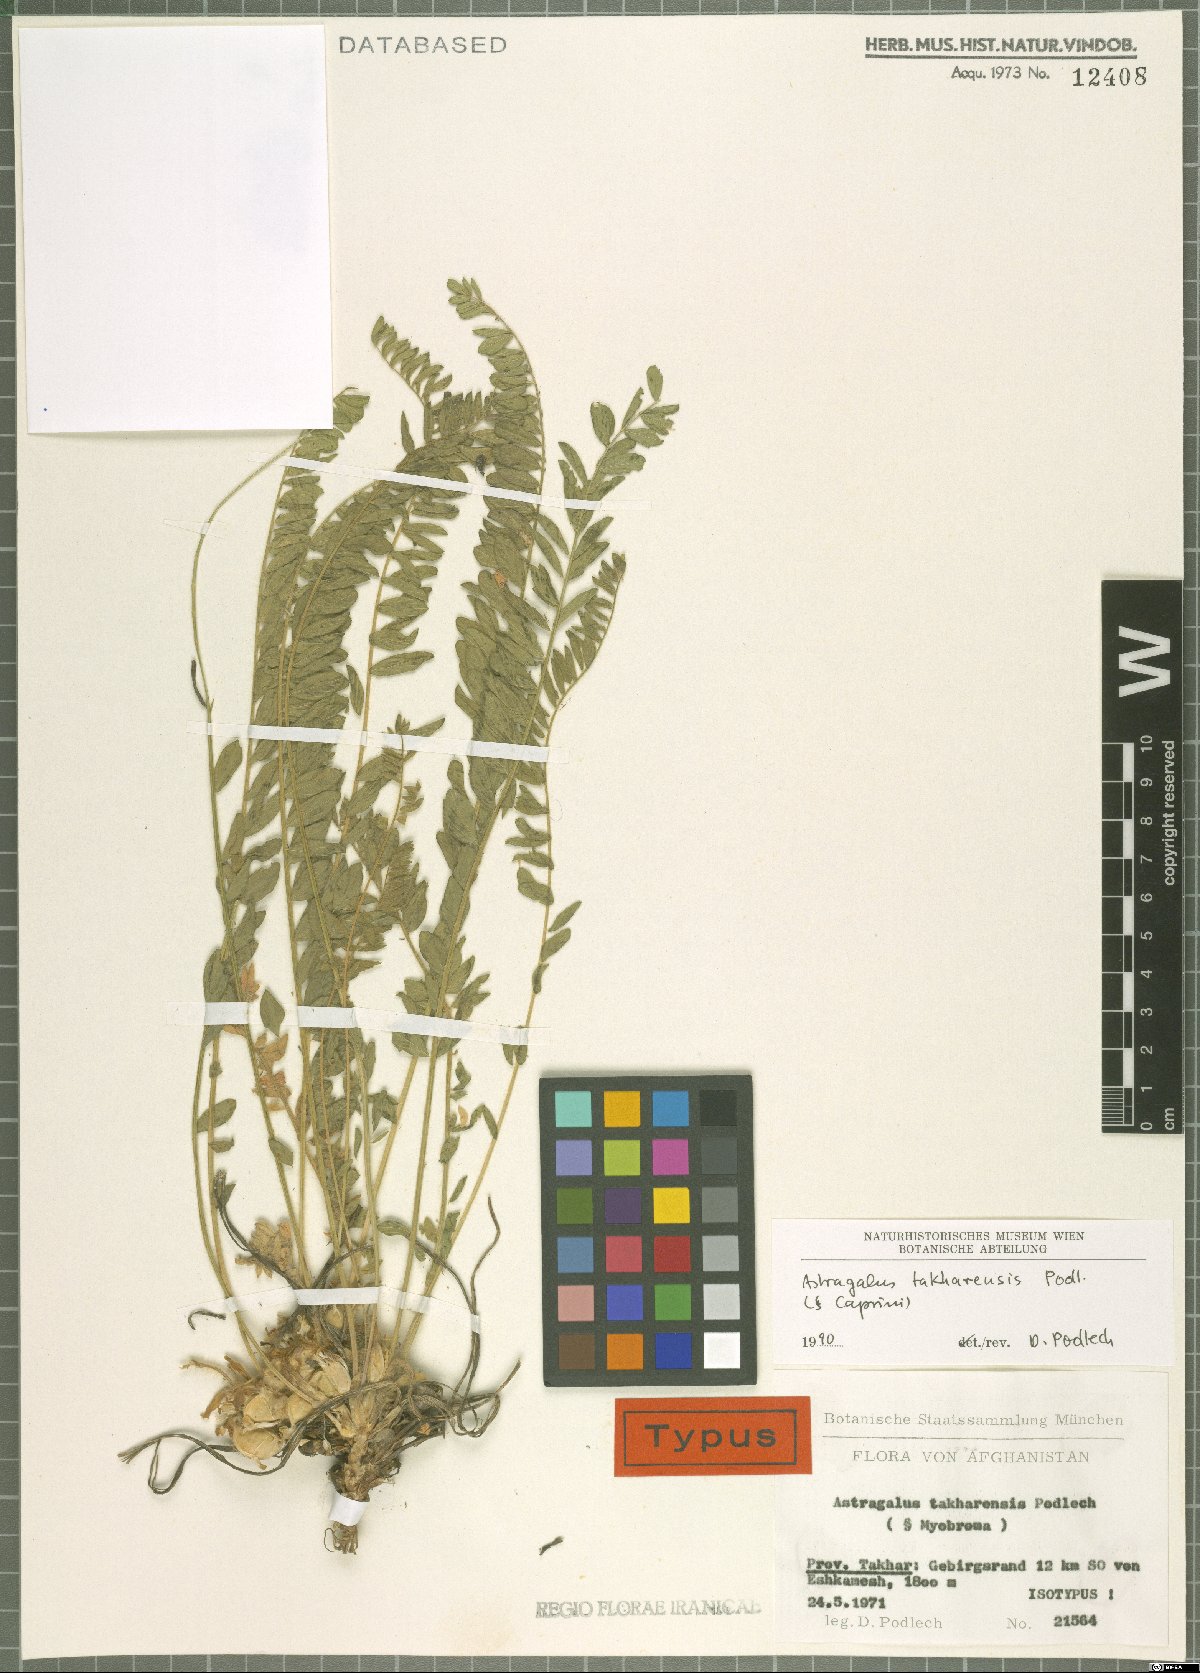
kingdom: Plantae
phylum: Tracheophyta
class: Magnoliopsida
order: Fabales
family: Fabaceae
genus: Astragalus
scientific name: Astragalus takharensis
